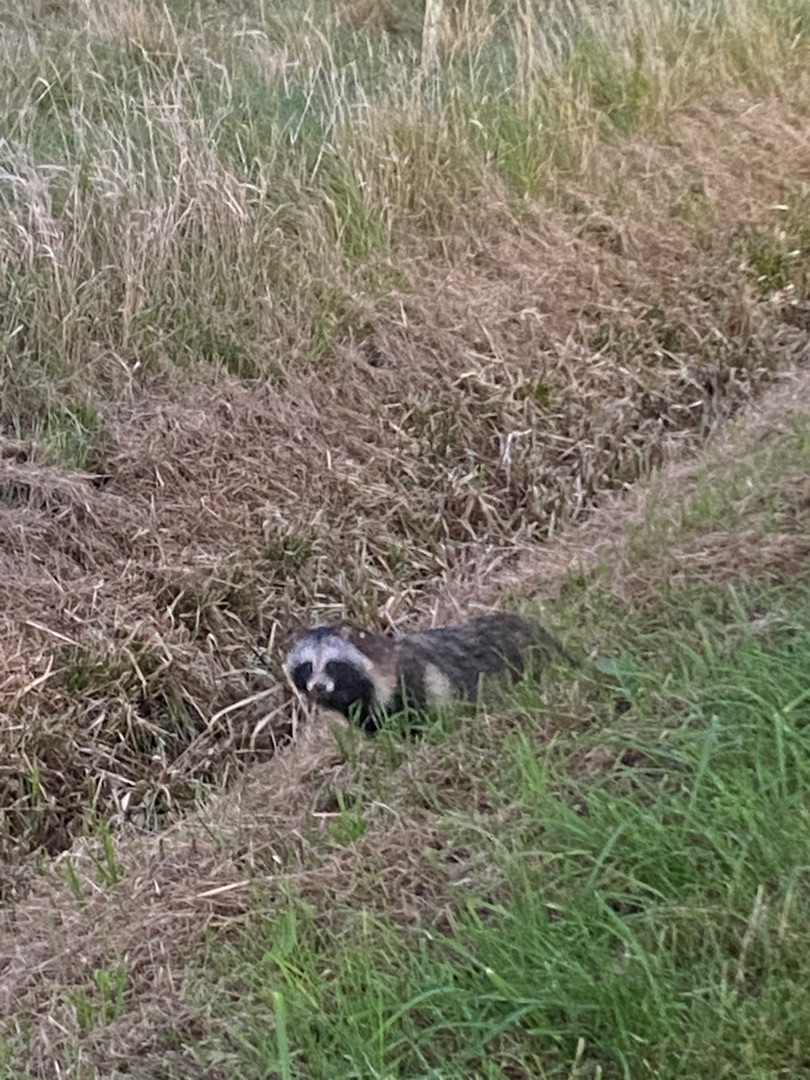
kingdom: Animalia
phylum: Chordata
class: Mammalia
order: Carnivora
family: Canidae
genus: Nyctereutes
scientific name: Nyctereutes procyonoides
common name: Mårhund
